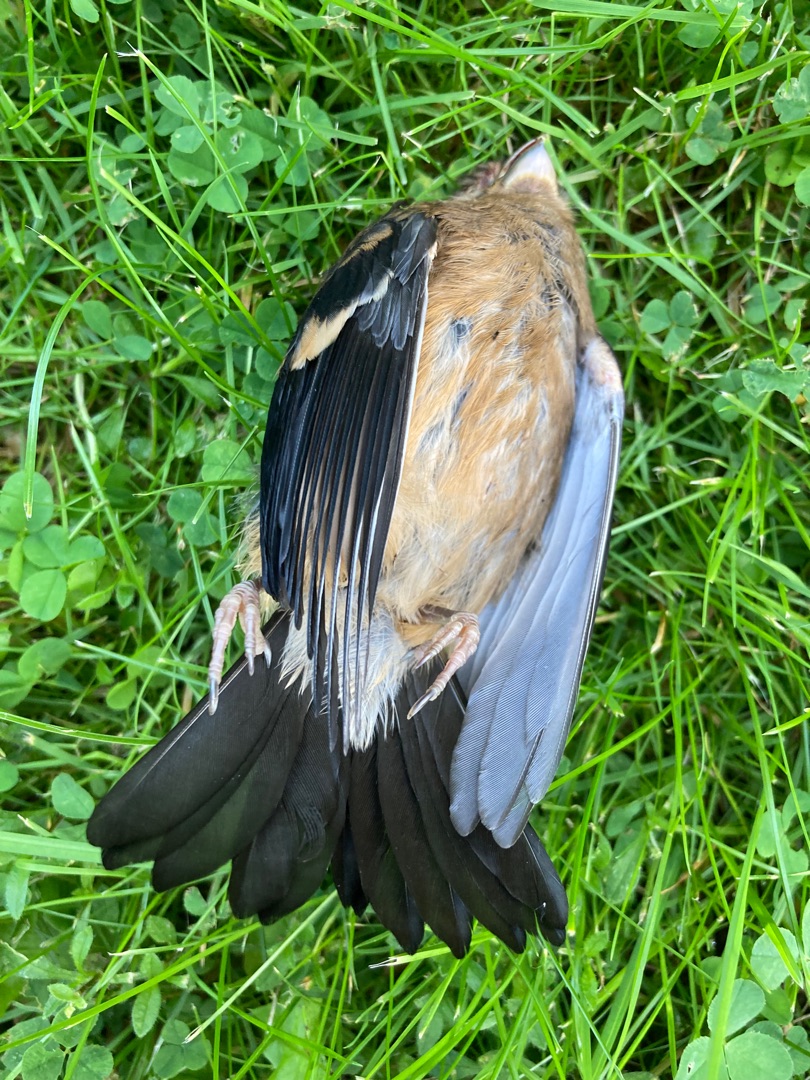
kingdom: Animalia
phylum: Chordata
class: Aves
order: Passeriformes
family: Fringillidae
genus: Pyrrhula
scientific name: Pyrrhula pyrrhula
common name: Dompap
